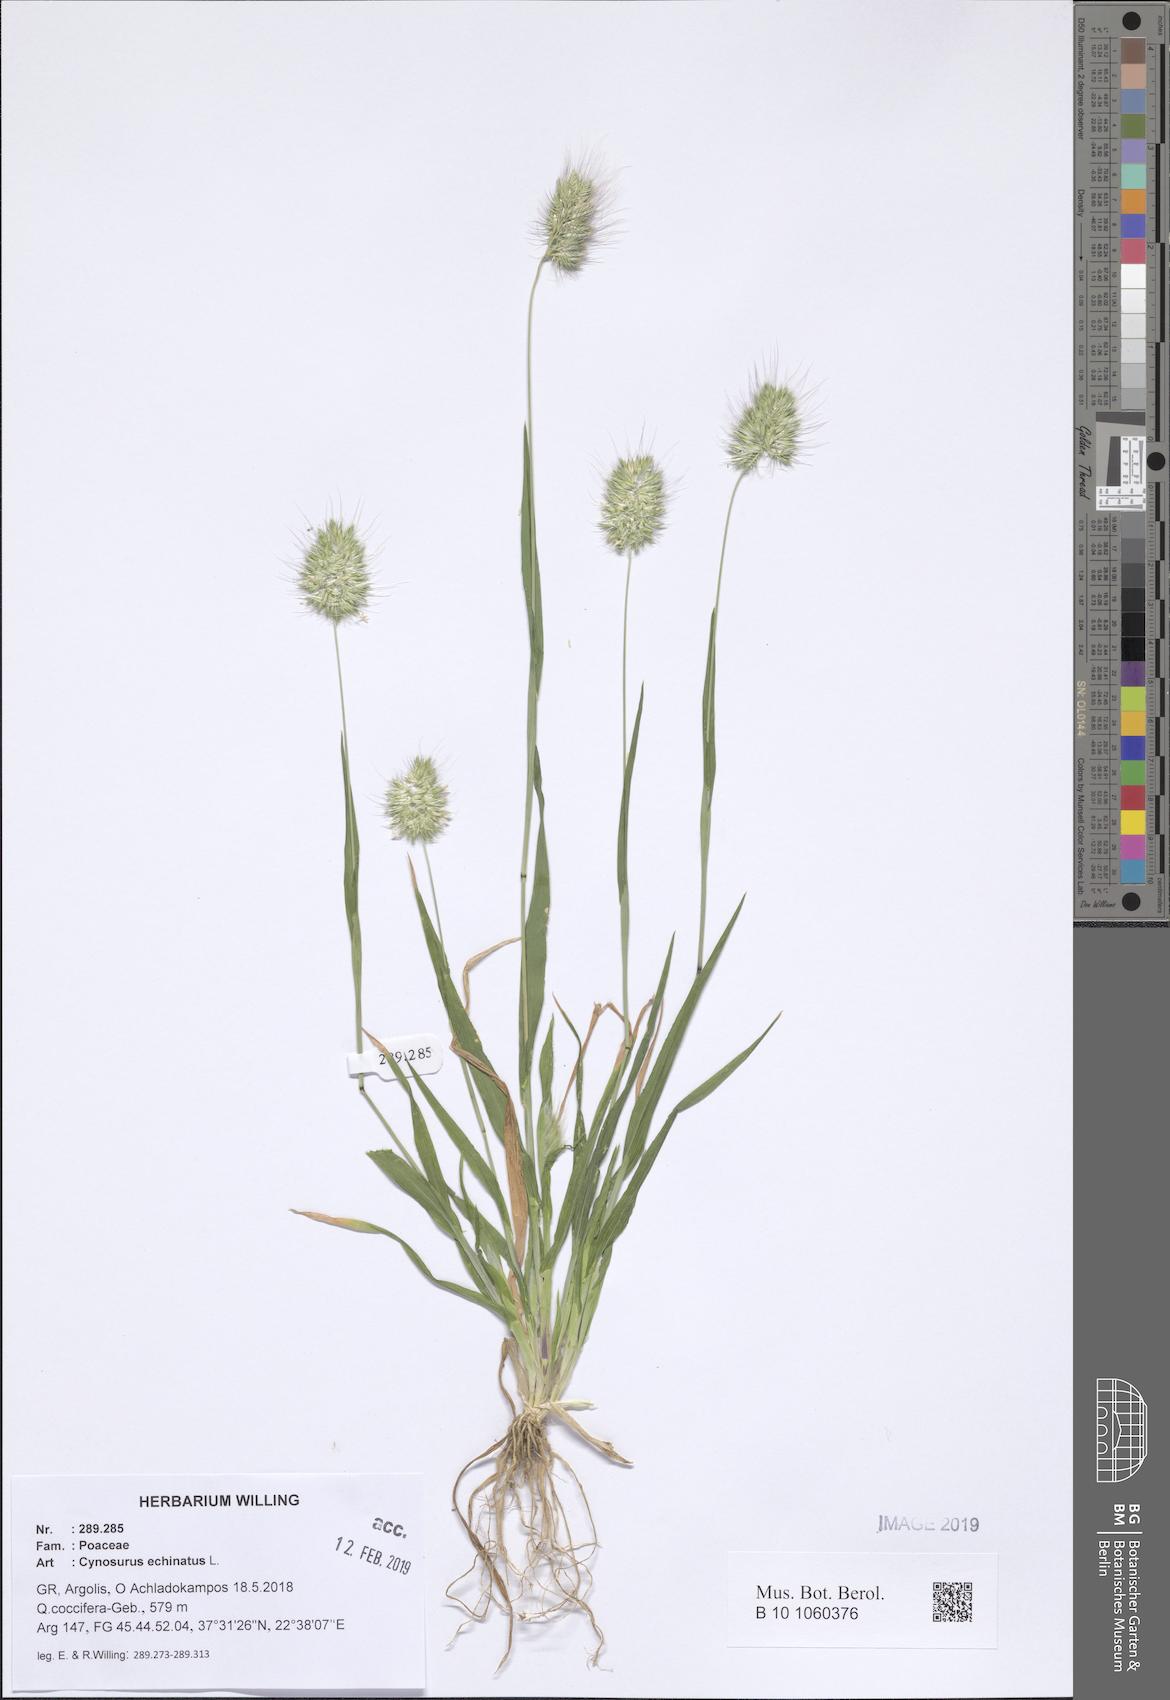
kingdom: Plantae
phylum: Tracheophyta
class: Liliopsida
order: Poales
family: Poaceae
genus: Cynosurus
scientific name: Cynosurus echinatus
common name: Rough dog's-tail
